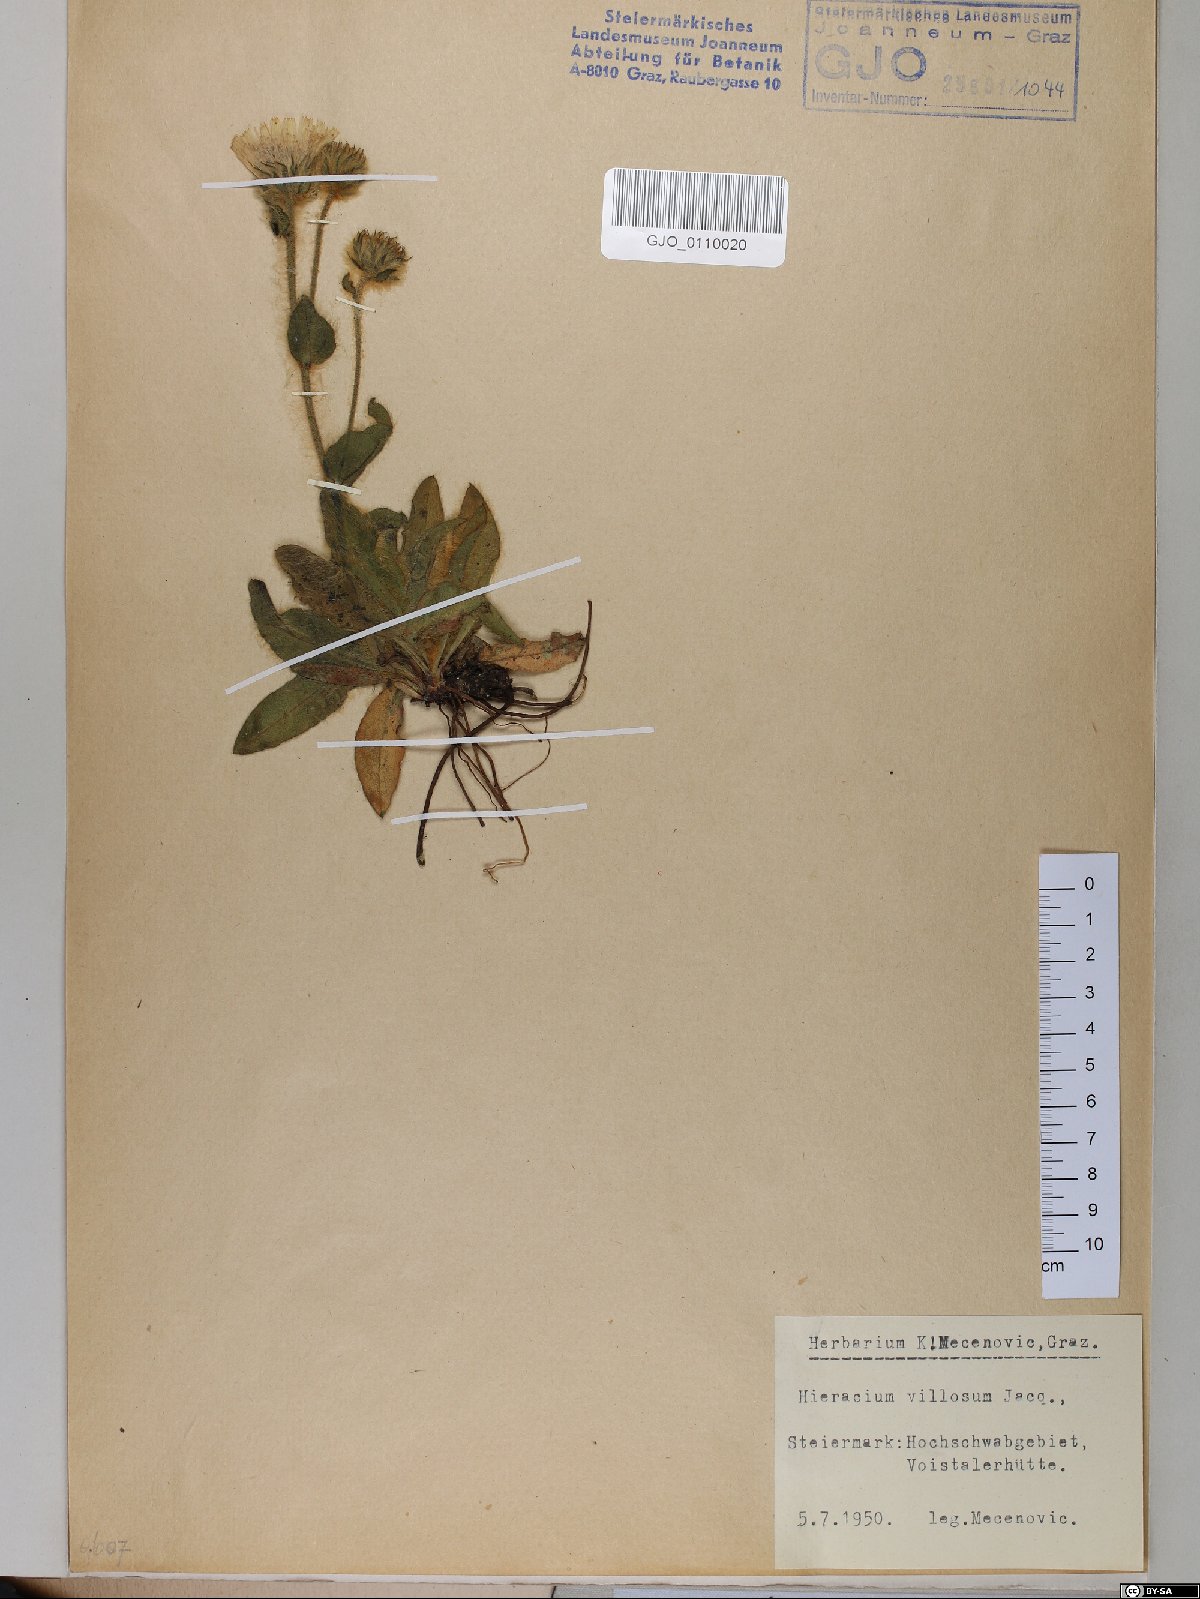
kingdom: Plantae
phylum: Tracheophyta
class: Magnoliopsida
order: Asterales
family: Asteraceae
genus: Hieracium
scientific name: Hieracium villosum
